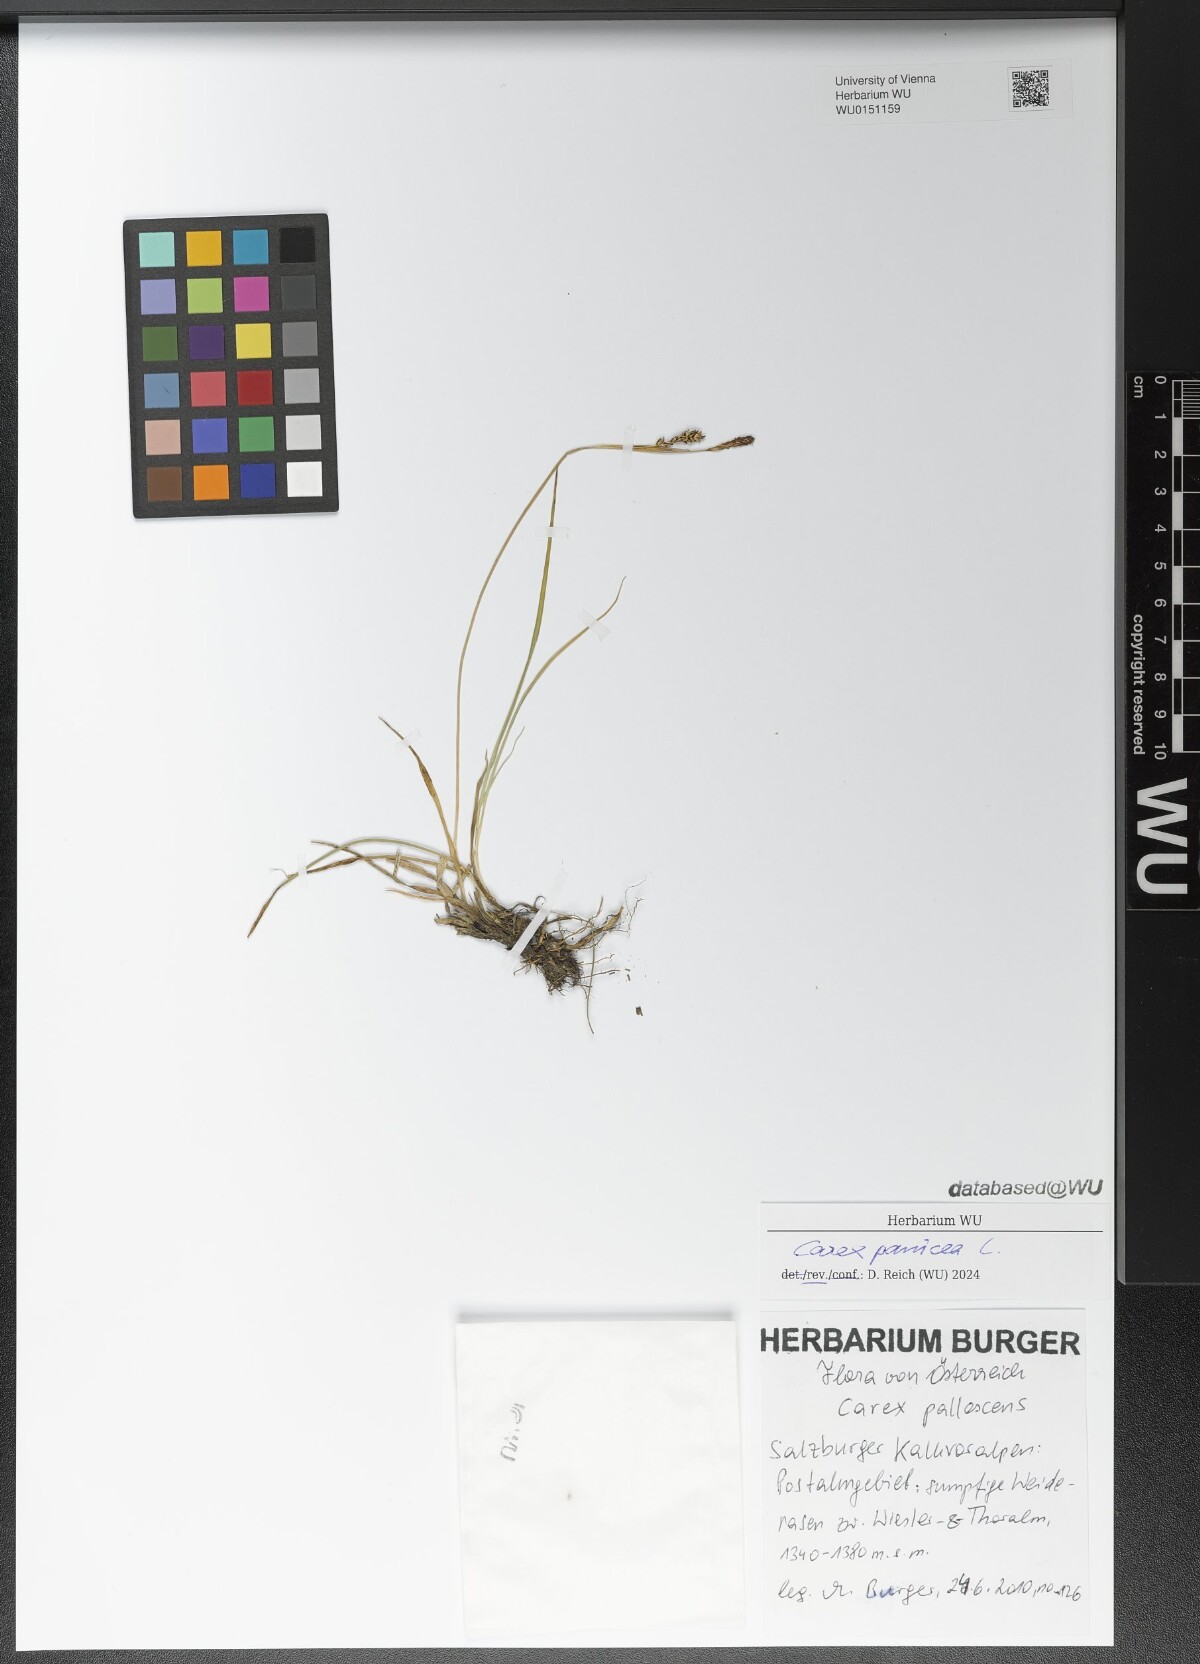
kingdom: Plantae
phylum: Tracheophyta
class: Liliopsida
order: Poales
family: Cyperaceae
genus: Carex
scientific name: Carex panicea
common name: Carnation sedge
